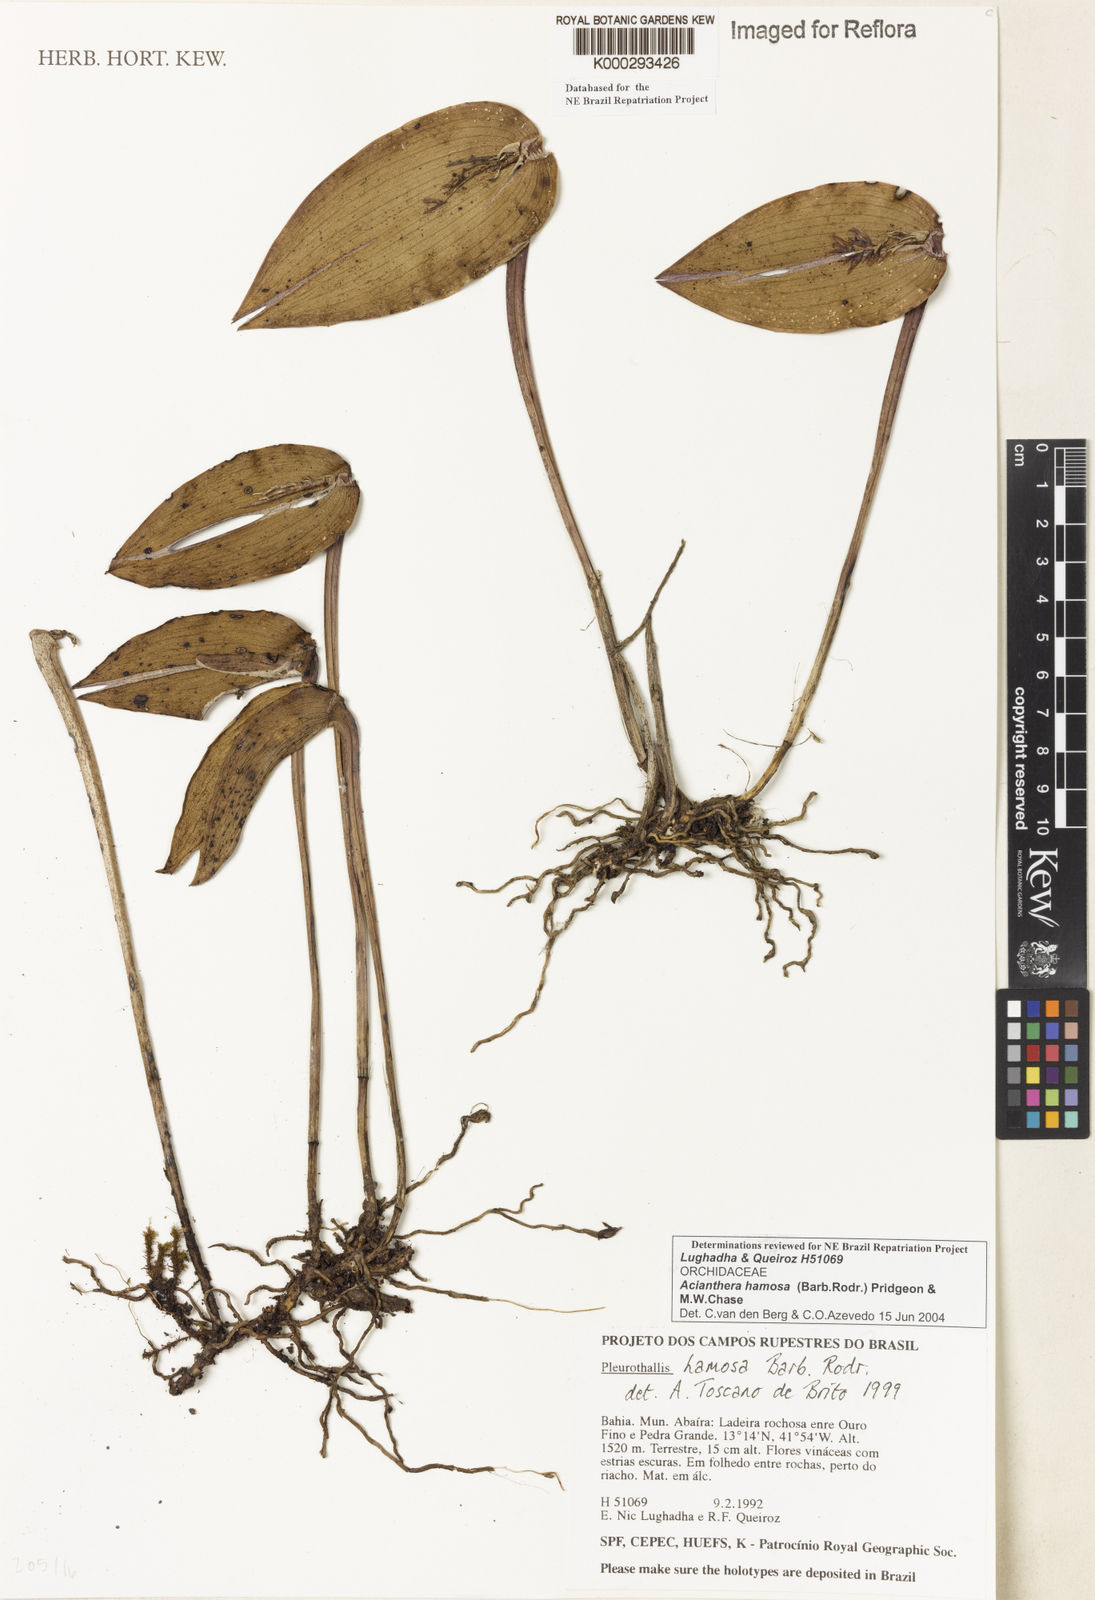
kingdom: Plantae
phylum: Tracheophyta
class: Liliopsida
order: Asparagales
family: Orchidaceae
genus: Acianthera
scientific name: Acianthera prolifera
